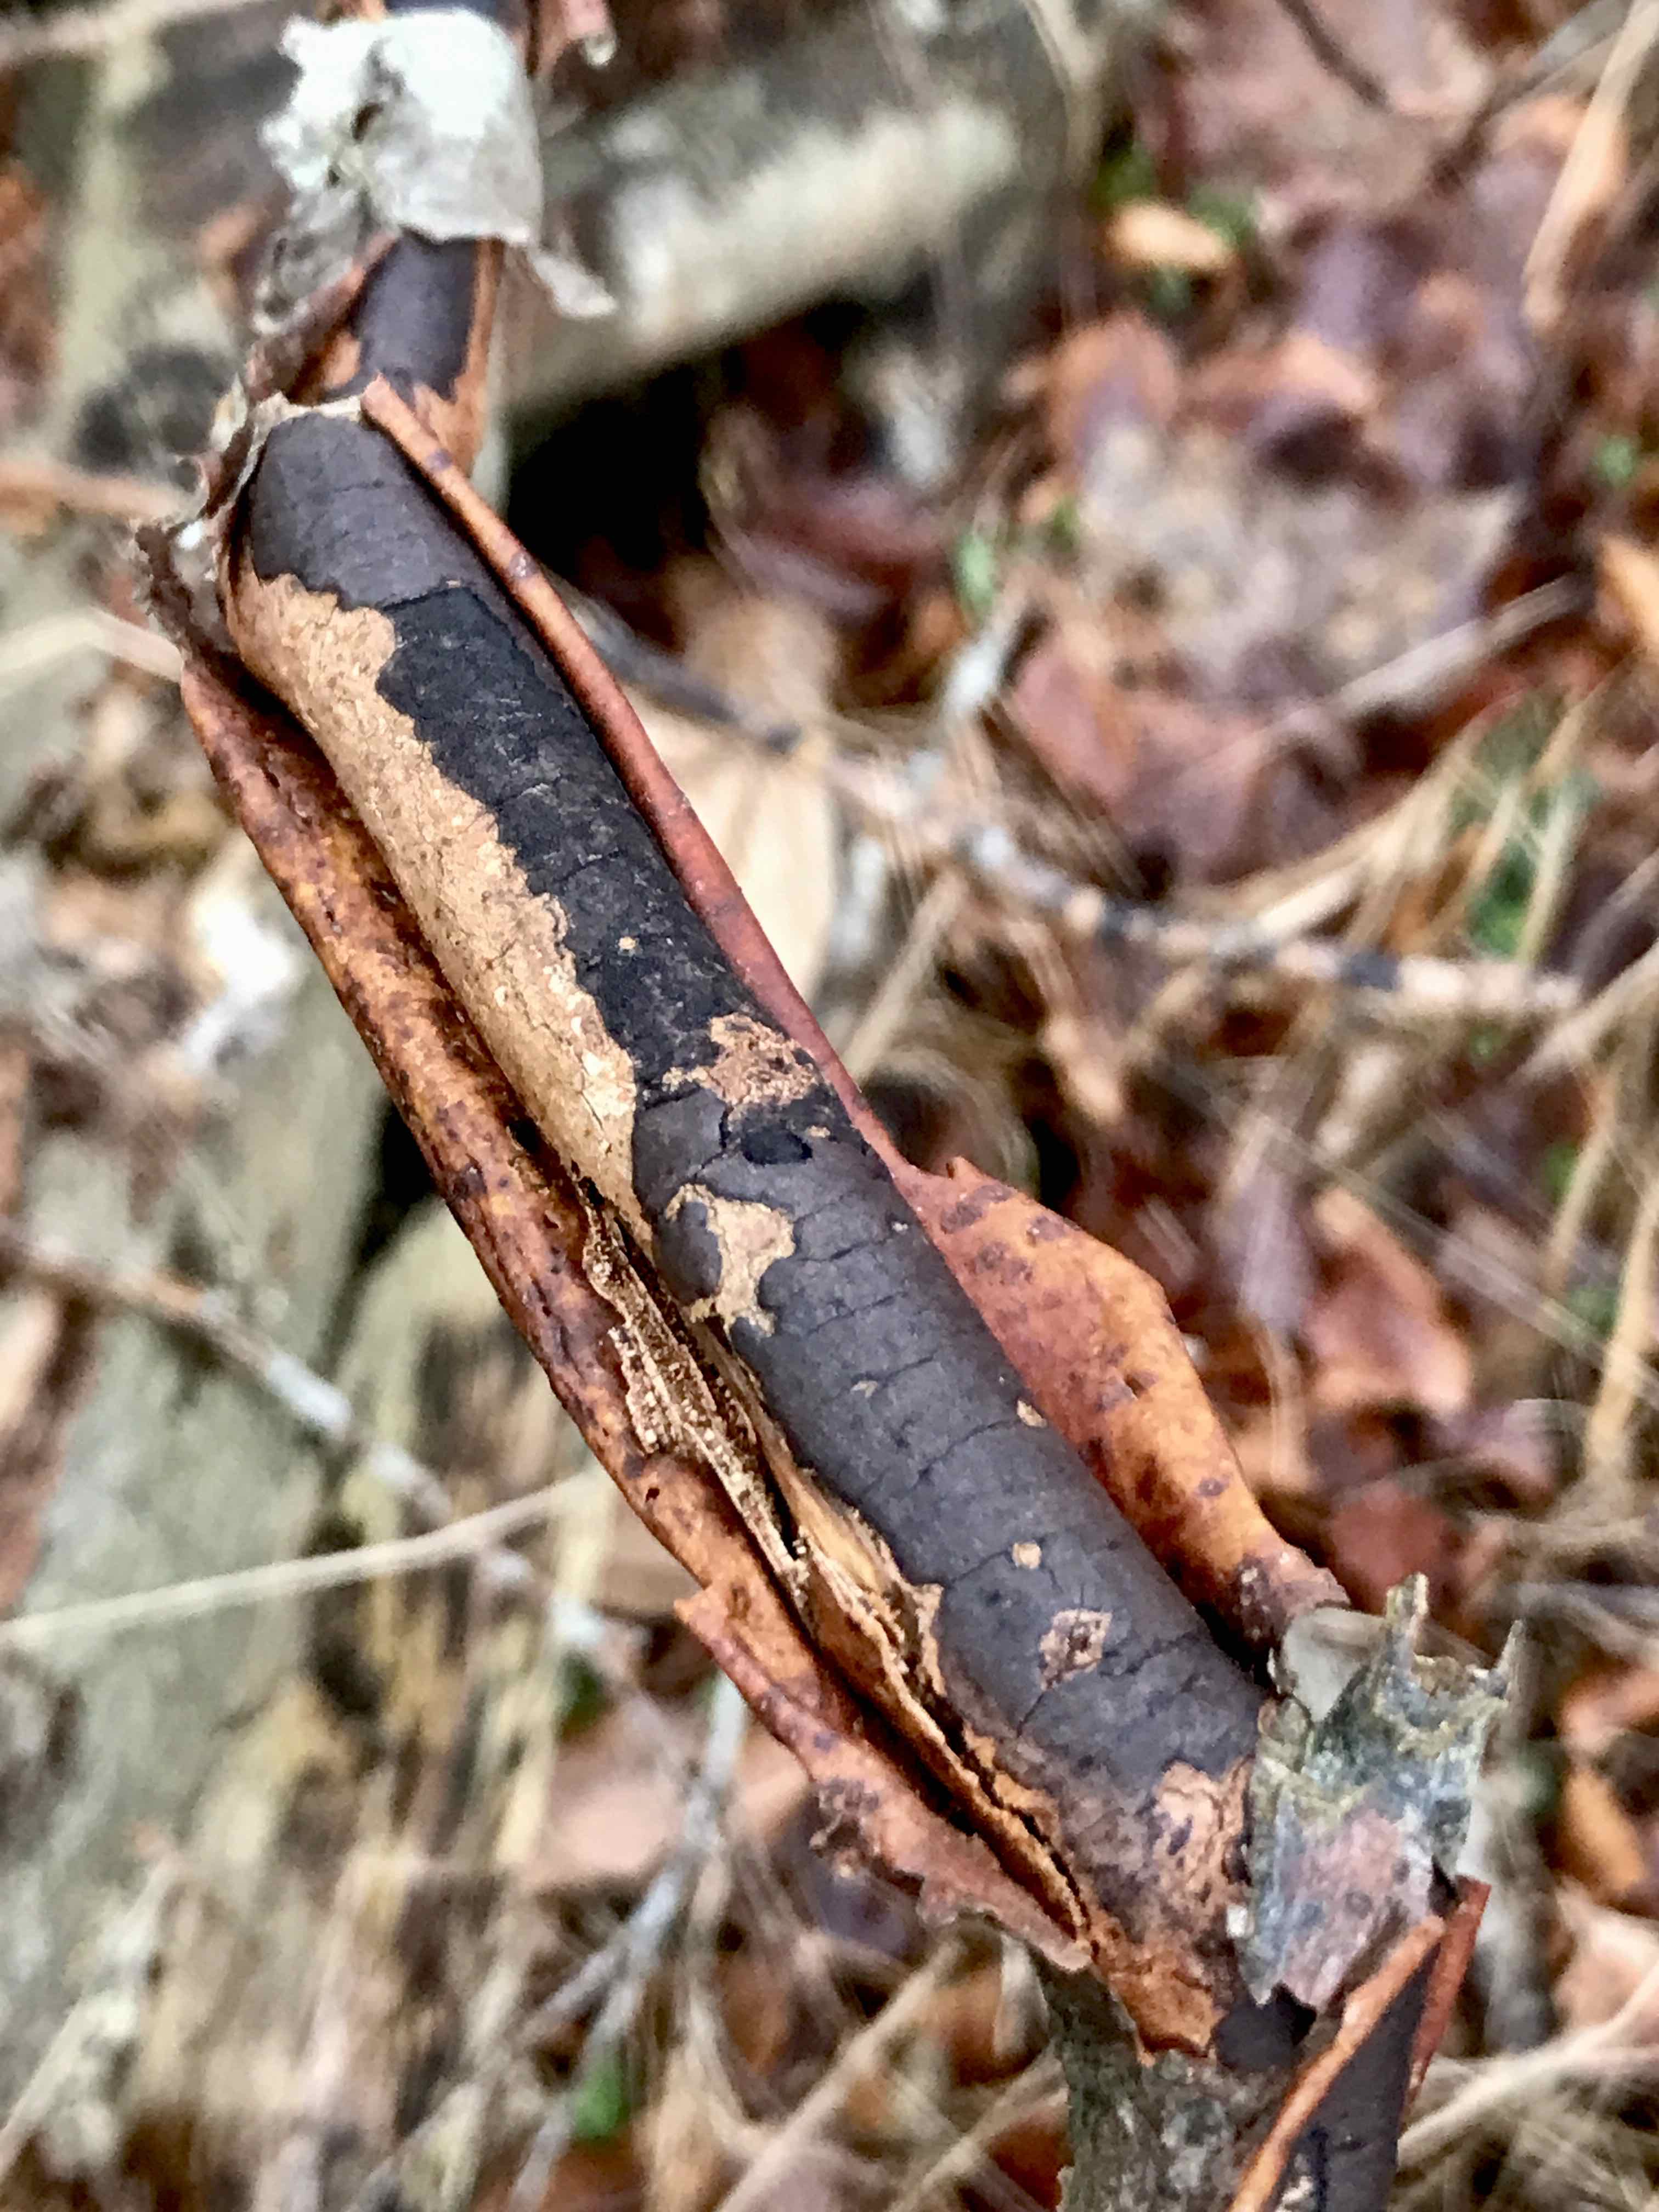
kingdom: Fungi
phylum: Ascomycota
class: Sordariomycetes
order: Xylariales
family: Diatrypaceae
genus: Diatrype
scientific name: Diatrype decorticata
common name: barksprænger-kulskorpe
